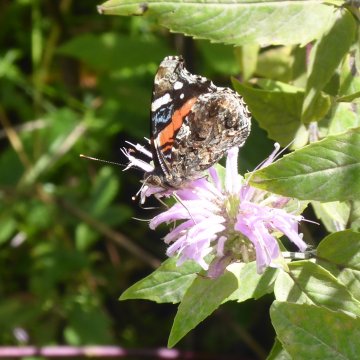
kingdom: Animalia
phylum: Arthropoda
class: Insecta
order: Lepidoptera
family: Nymphalidae
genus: Vanessa
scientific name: Vanessa atalanta
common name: Red Admiral
